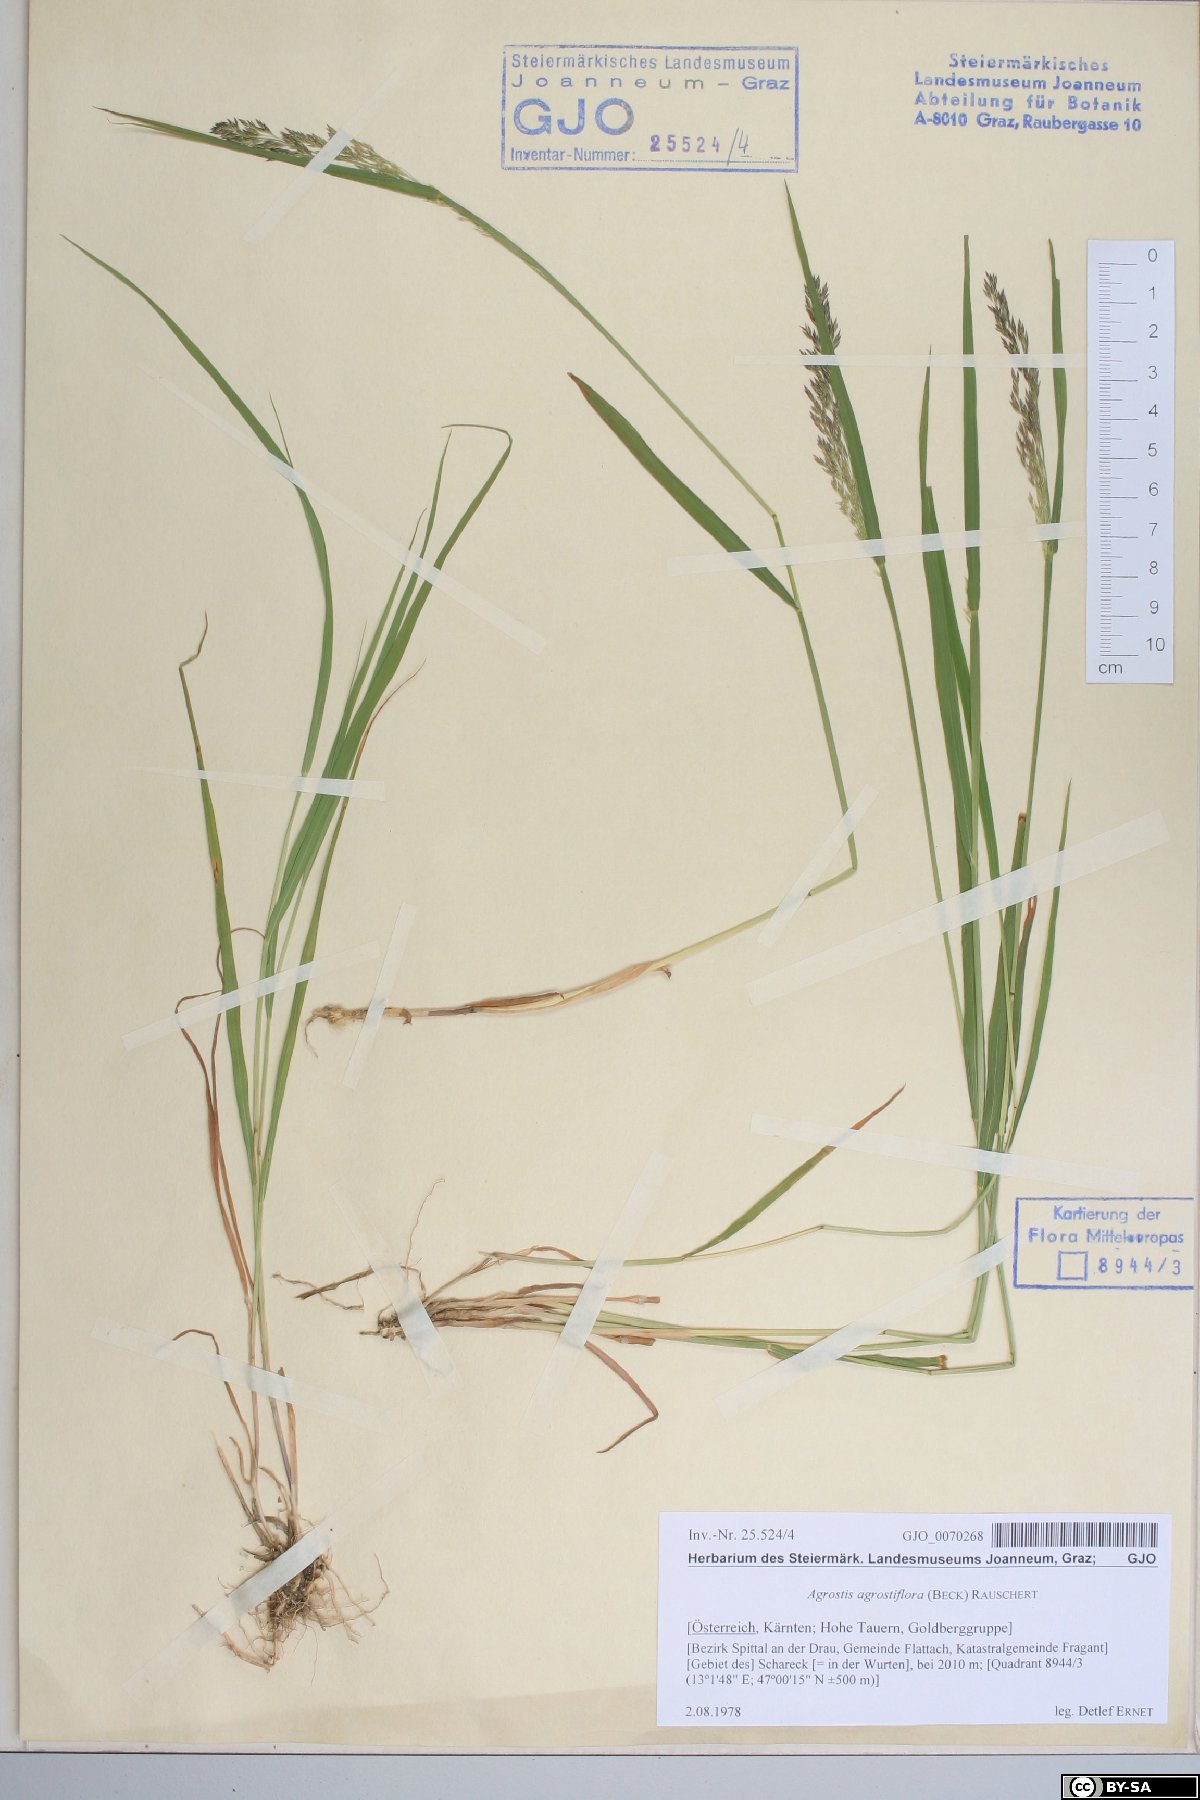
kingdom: Plantae
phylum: Tracheophyta
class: Liliopsida
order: Poales
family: Poaceae
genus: Agrostis
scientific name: Agrostis schraderiana
